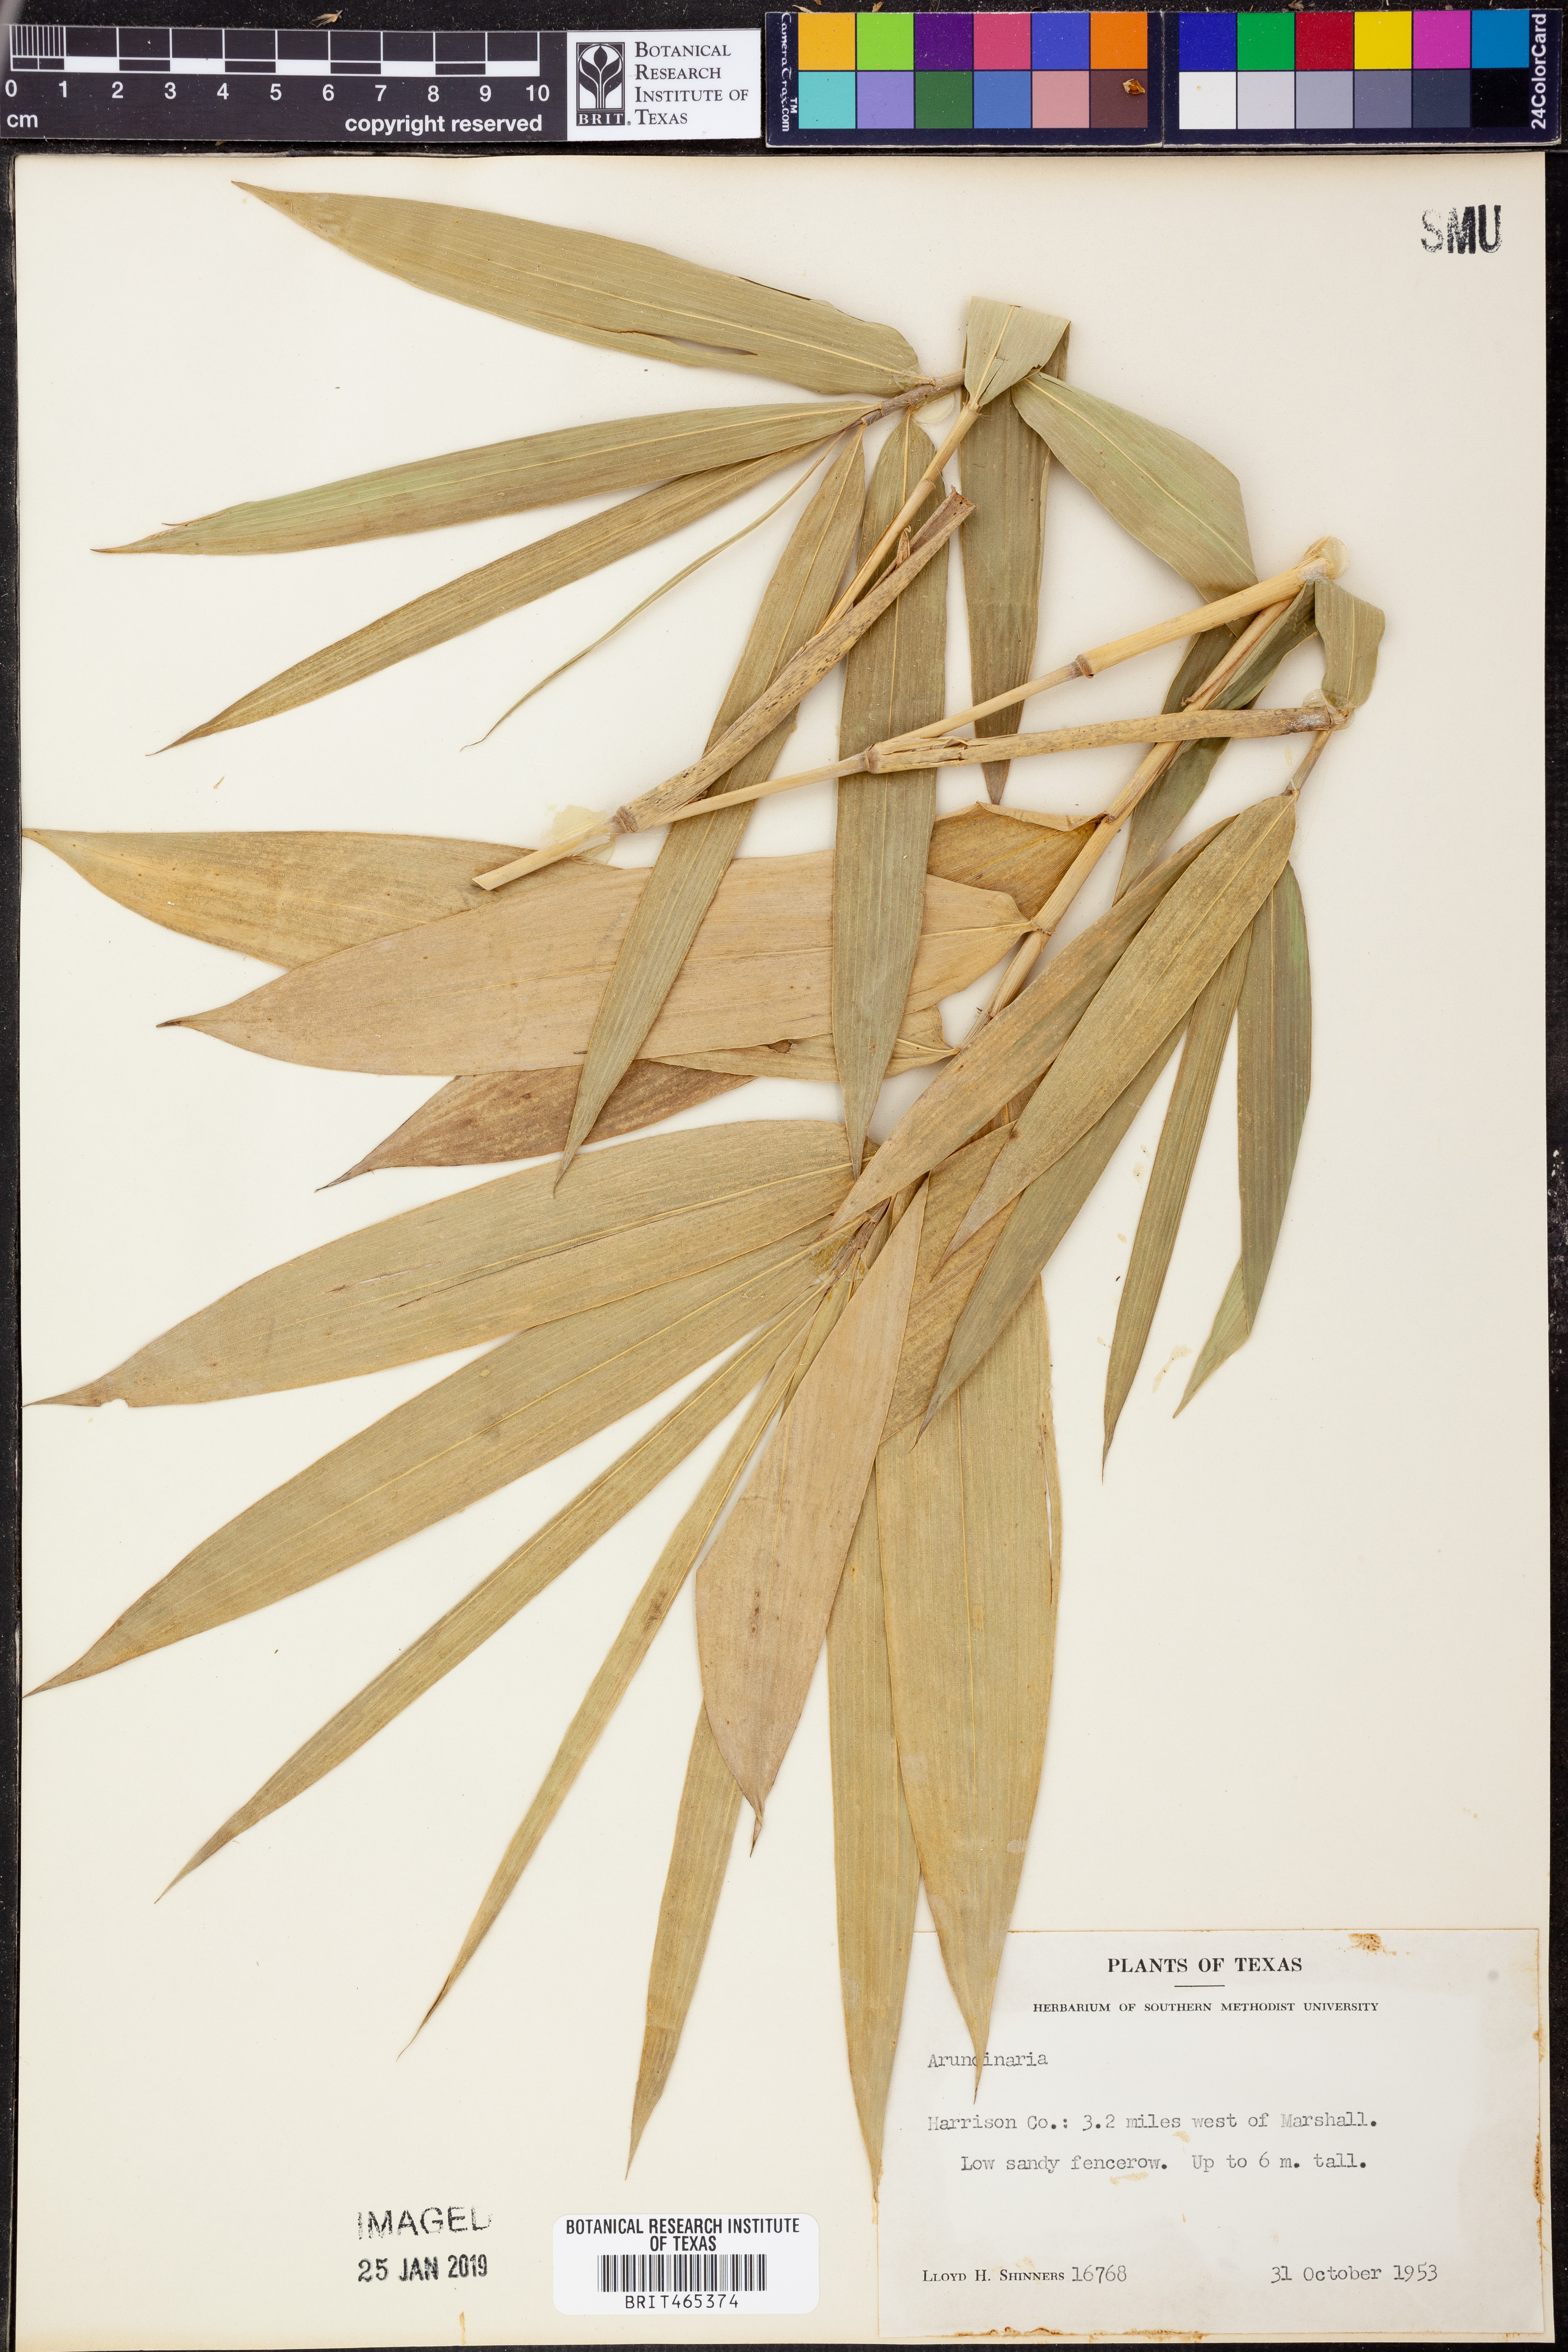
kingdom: Plantae
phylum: Tracheophyta
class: Liliopsida
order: Poales
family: Poaceae
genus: Arundinaria
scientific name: Arundinaria
